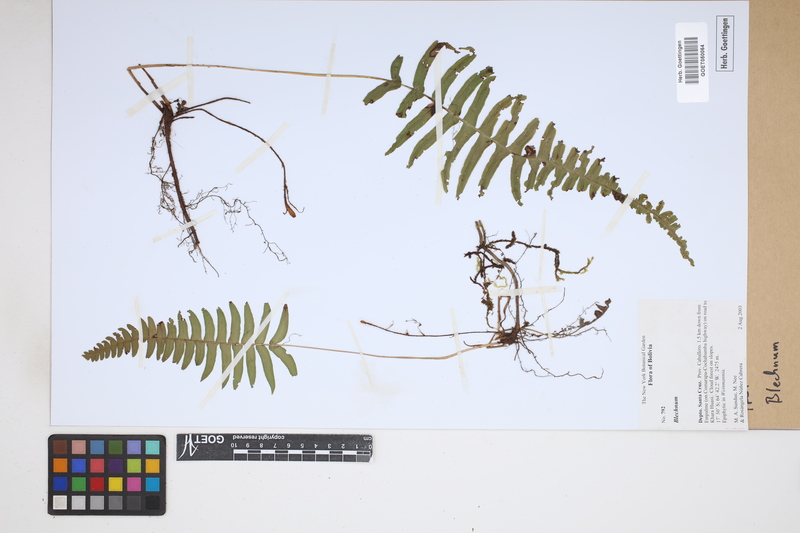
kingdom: Plantae
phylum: Tracheophyta
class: Polypodiopsida
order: Polypodiales
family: Blechnaceae
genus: Blechnum
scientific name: Blechnum
